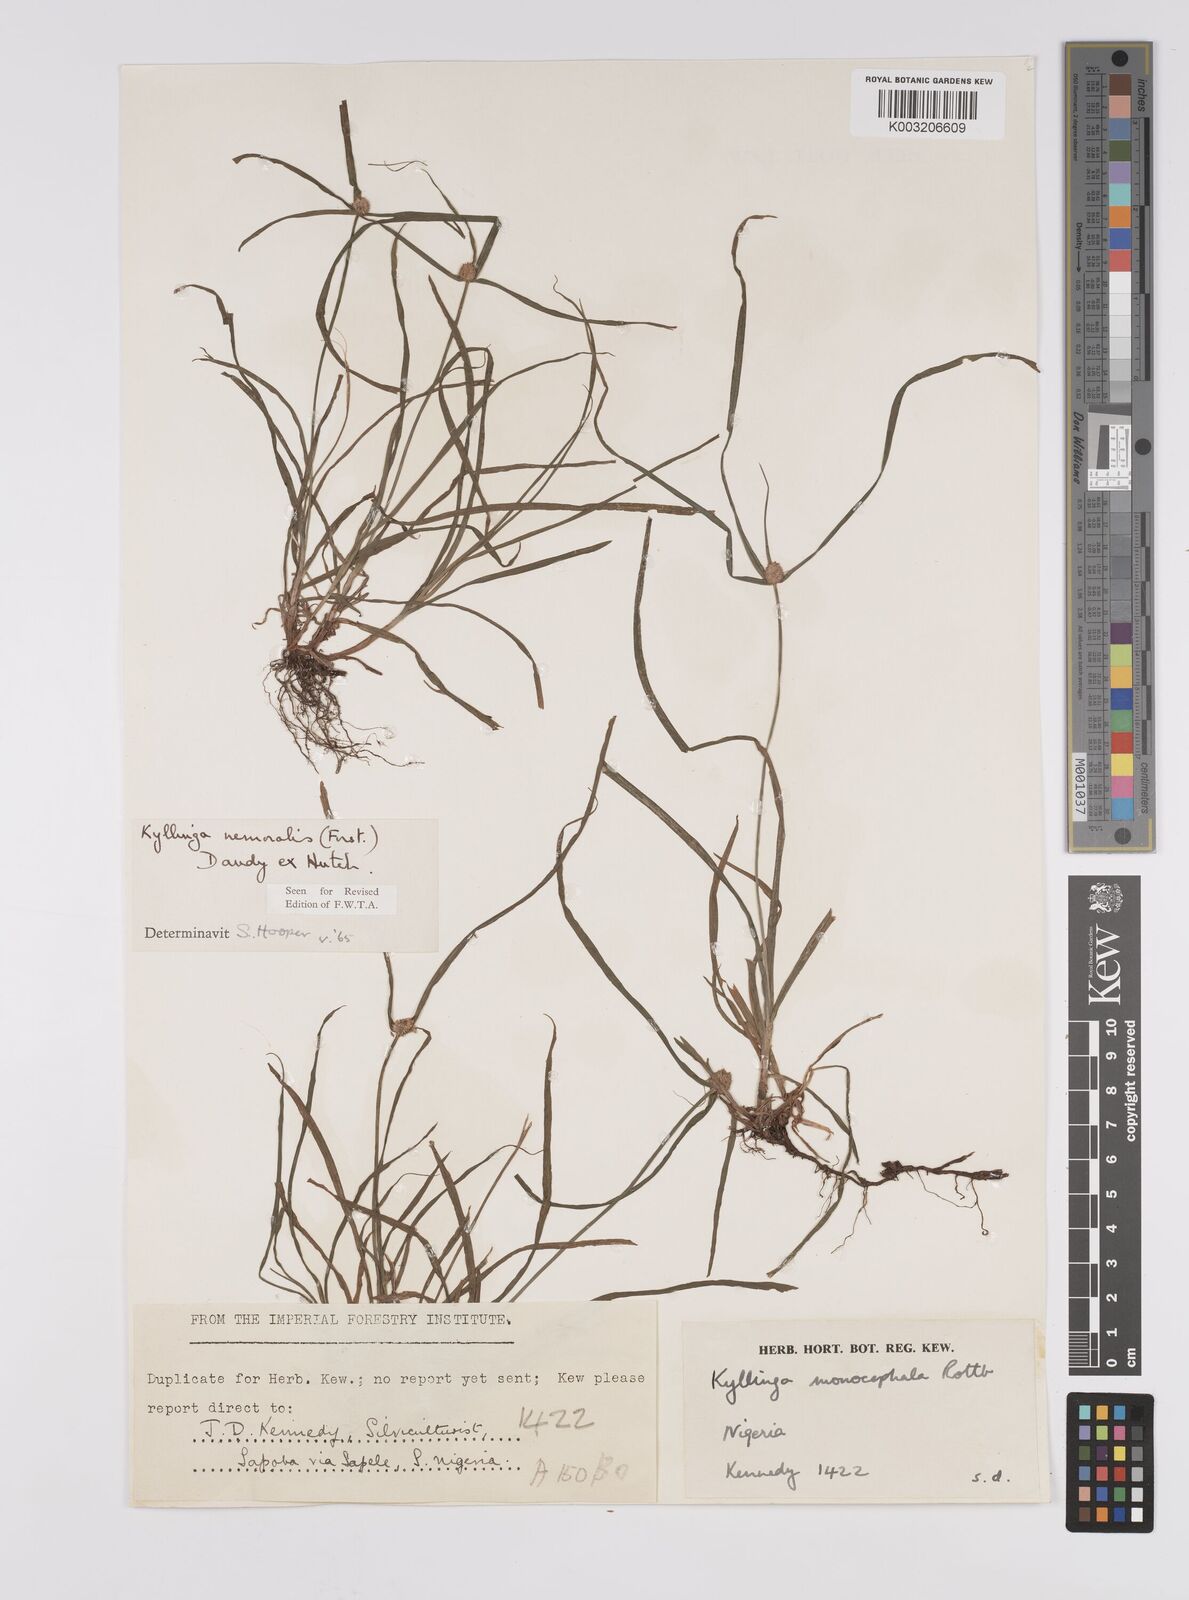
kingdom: Plantae
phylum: Tracheophyta
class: Liliopsida
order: Poales
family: Cyperaceae
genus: Cyperus
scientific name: Cyperus nemoralis
